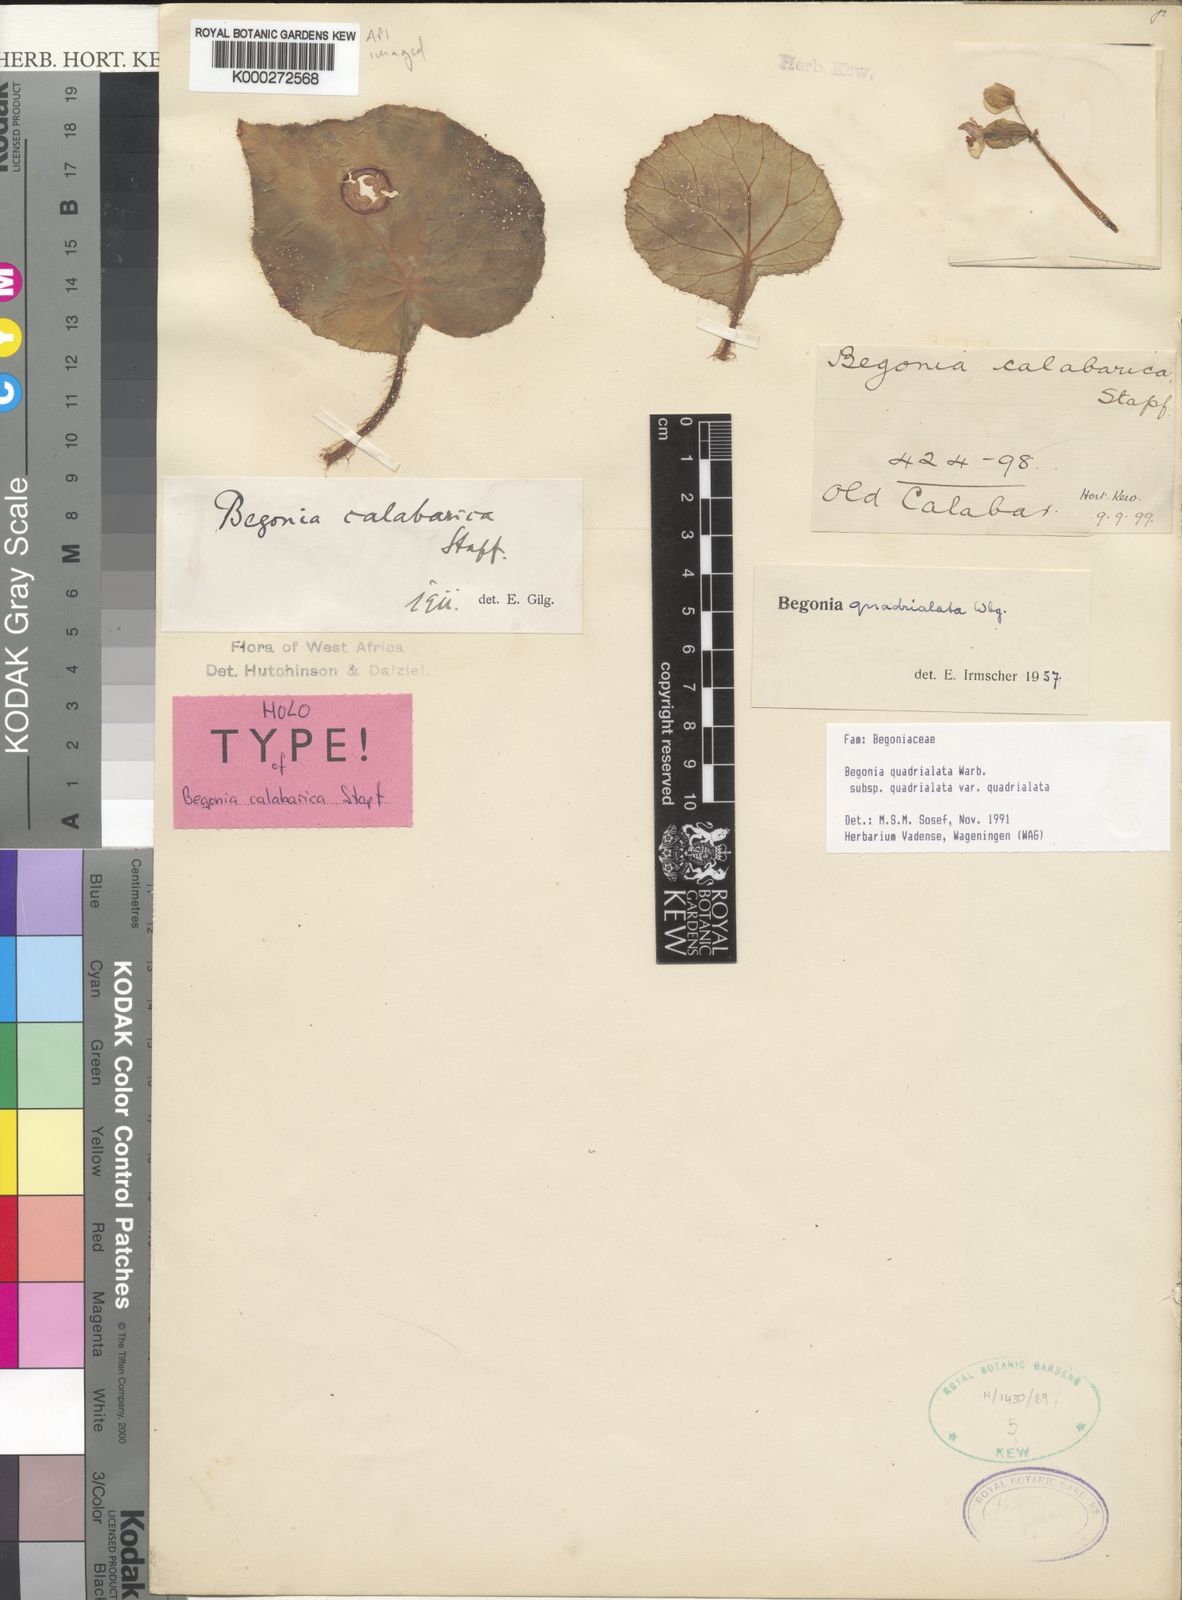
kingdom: Plantae
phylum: Tracheophyta
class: Magnoliopsida
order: Cucurbitales
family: Begoniaceae
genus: Begonia
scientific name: Begonia quadrialata
